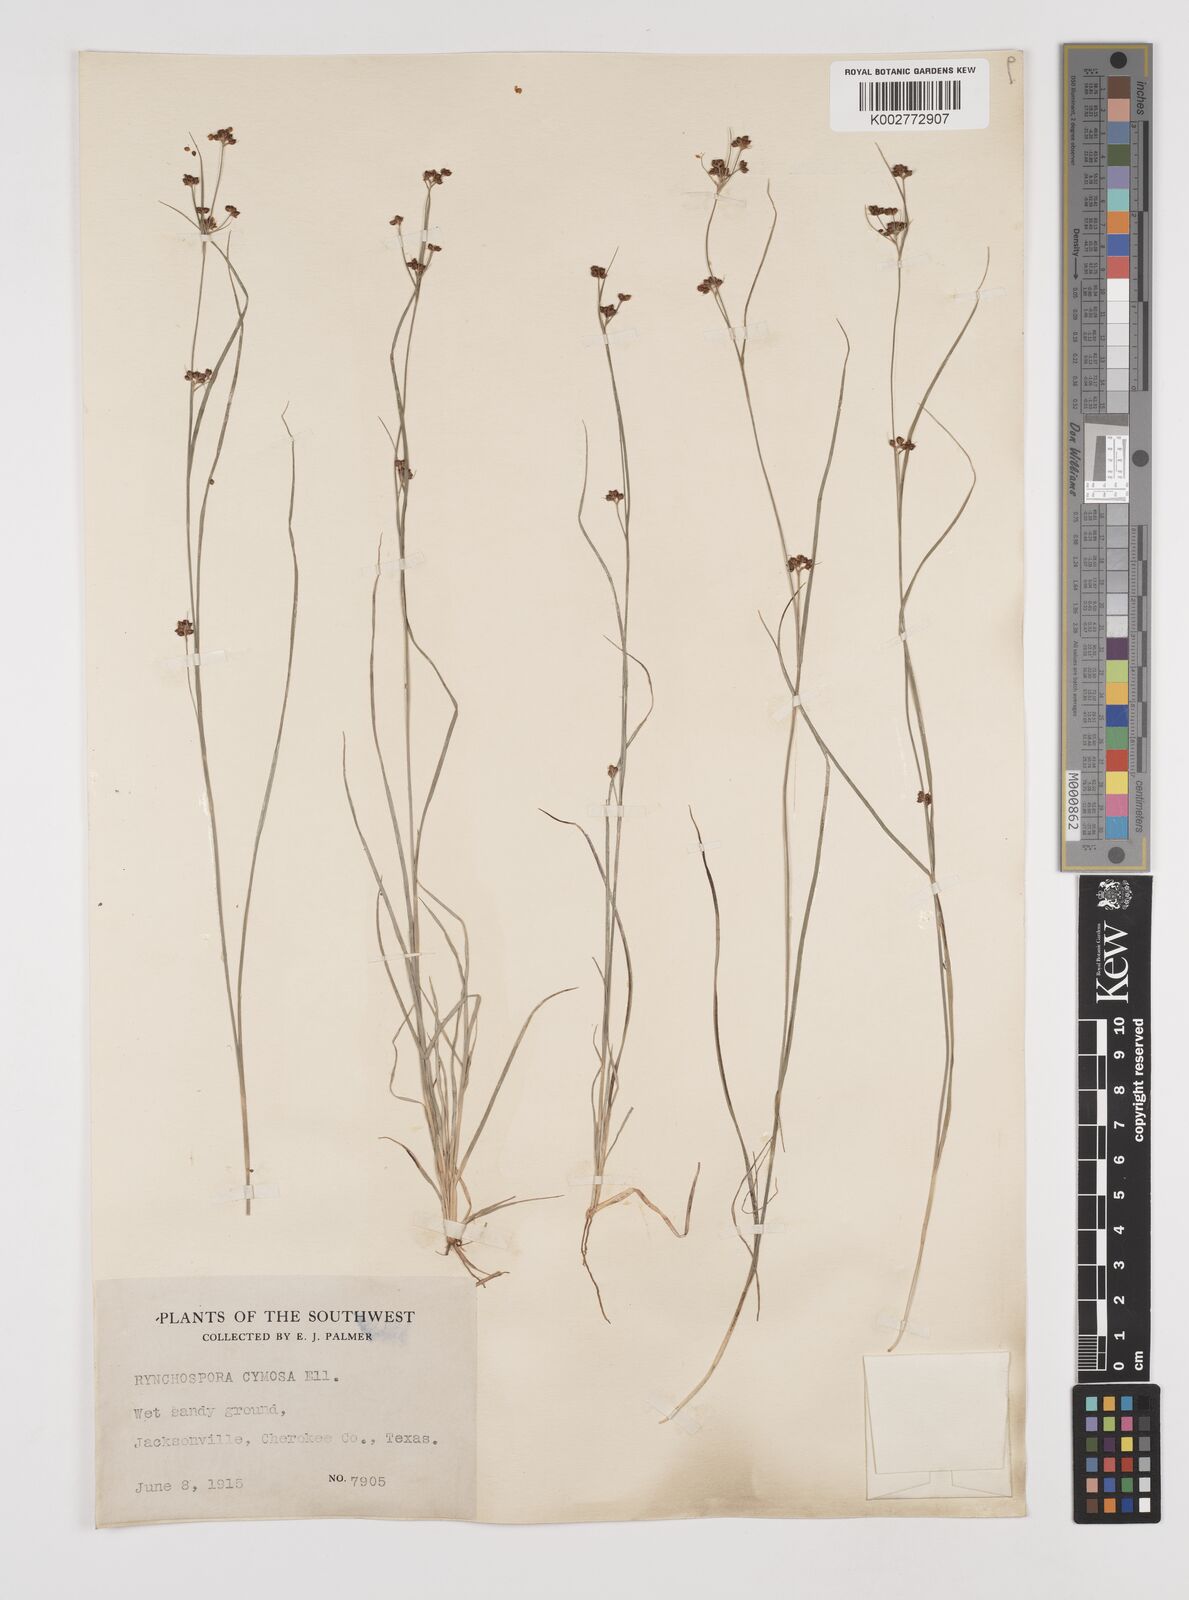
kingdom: Plantae
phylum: Tracheophyta
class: Liliopsida
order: Poales
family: Cyperaceae
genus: Scirpus
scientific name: Scirpus polyphyllus
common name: Leafy bulrush
